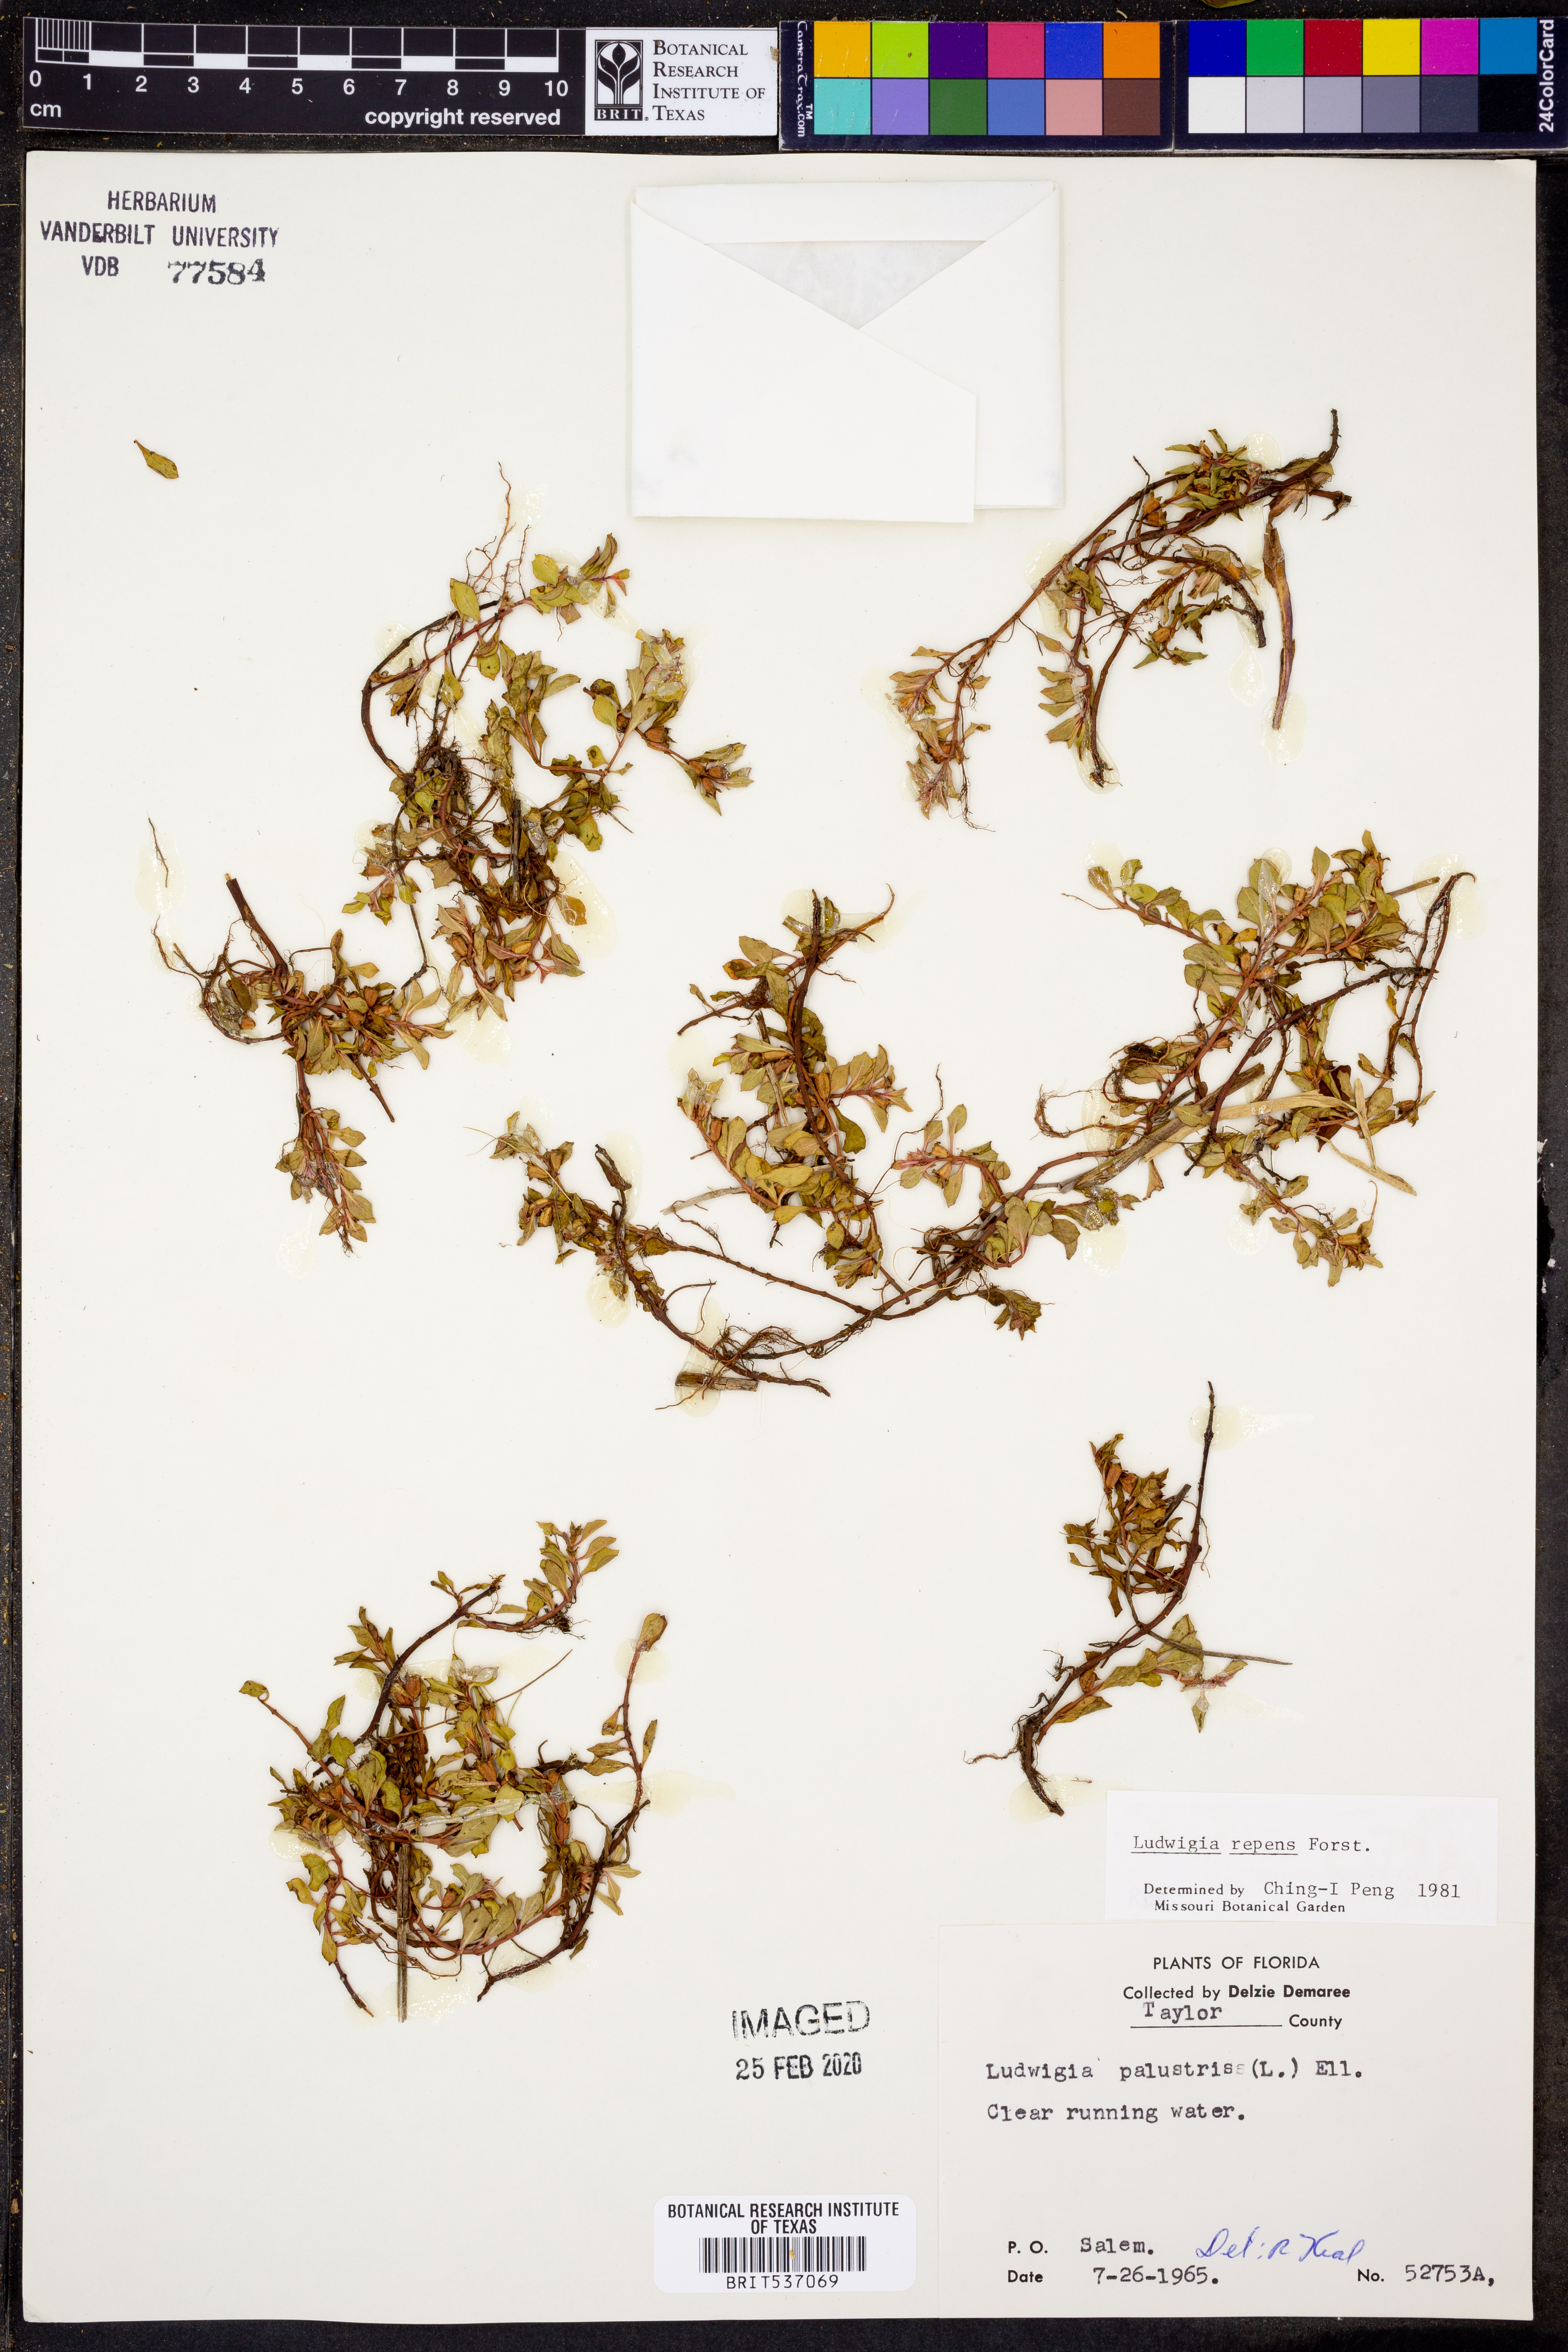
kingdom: Plantae
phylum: Tracheophyta
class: Magnoliopsida
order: Myrtales
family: Onagraceae
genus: Ludwigia
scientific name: Ludwigia repens
